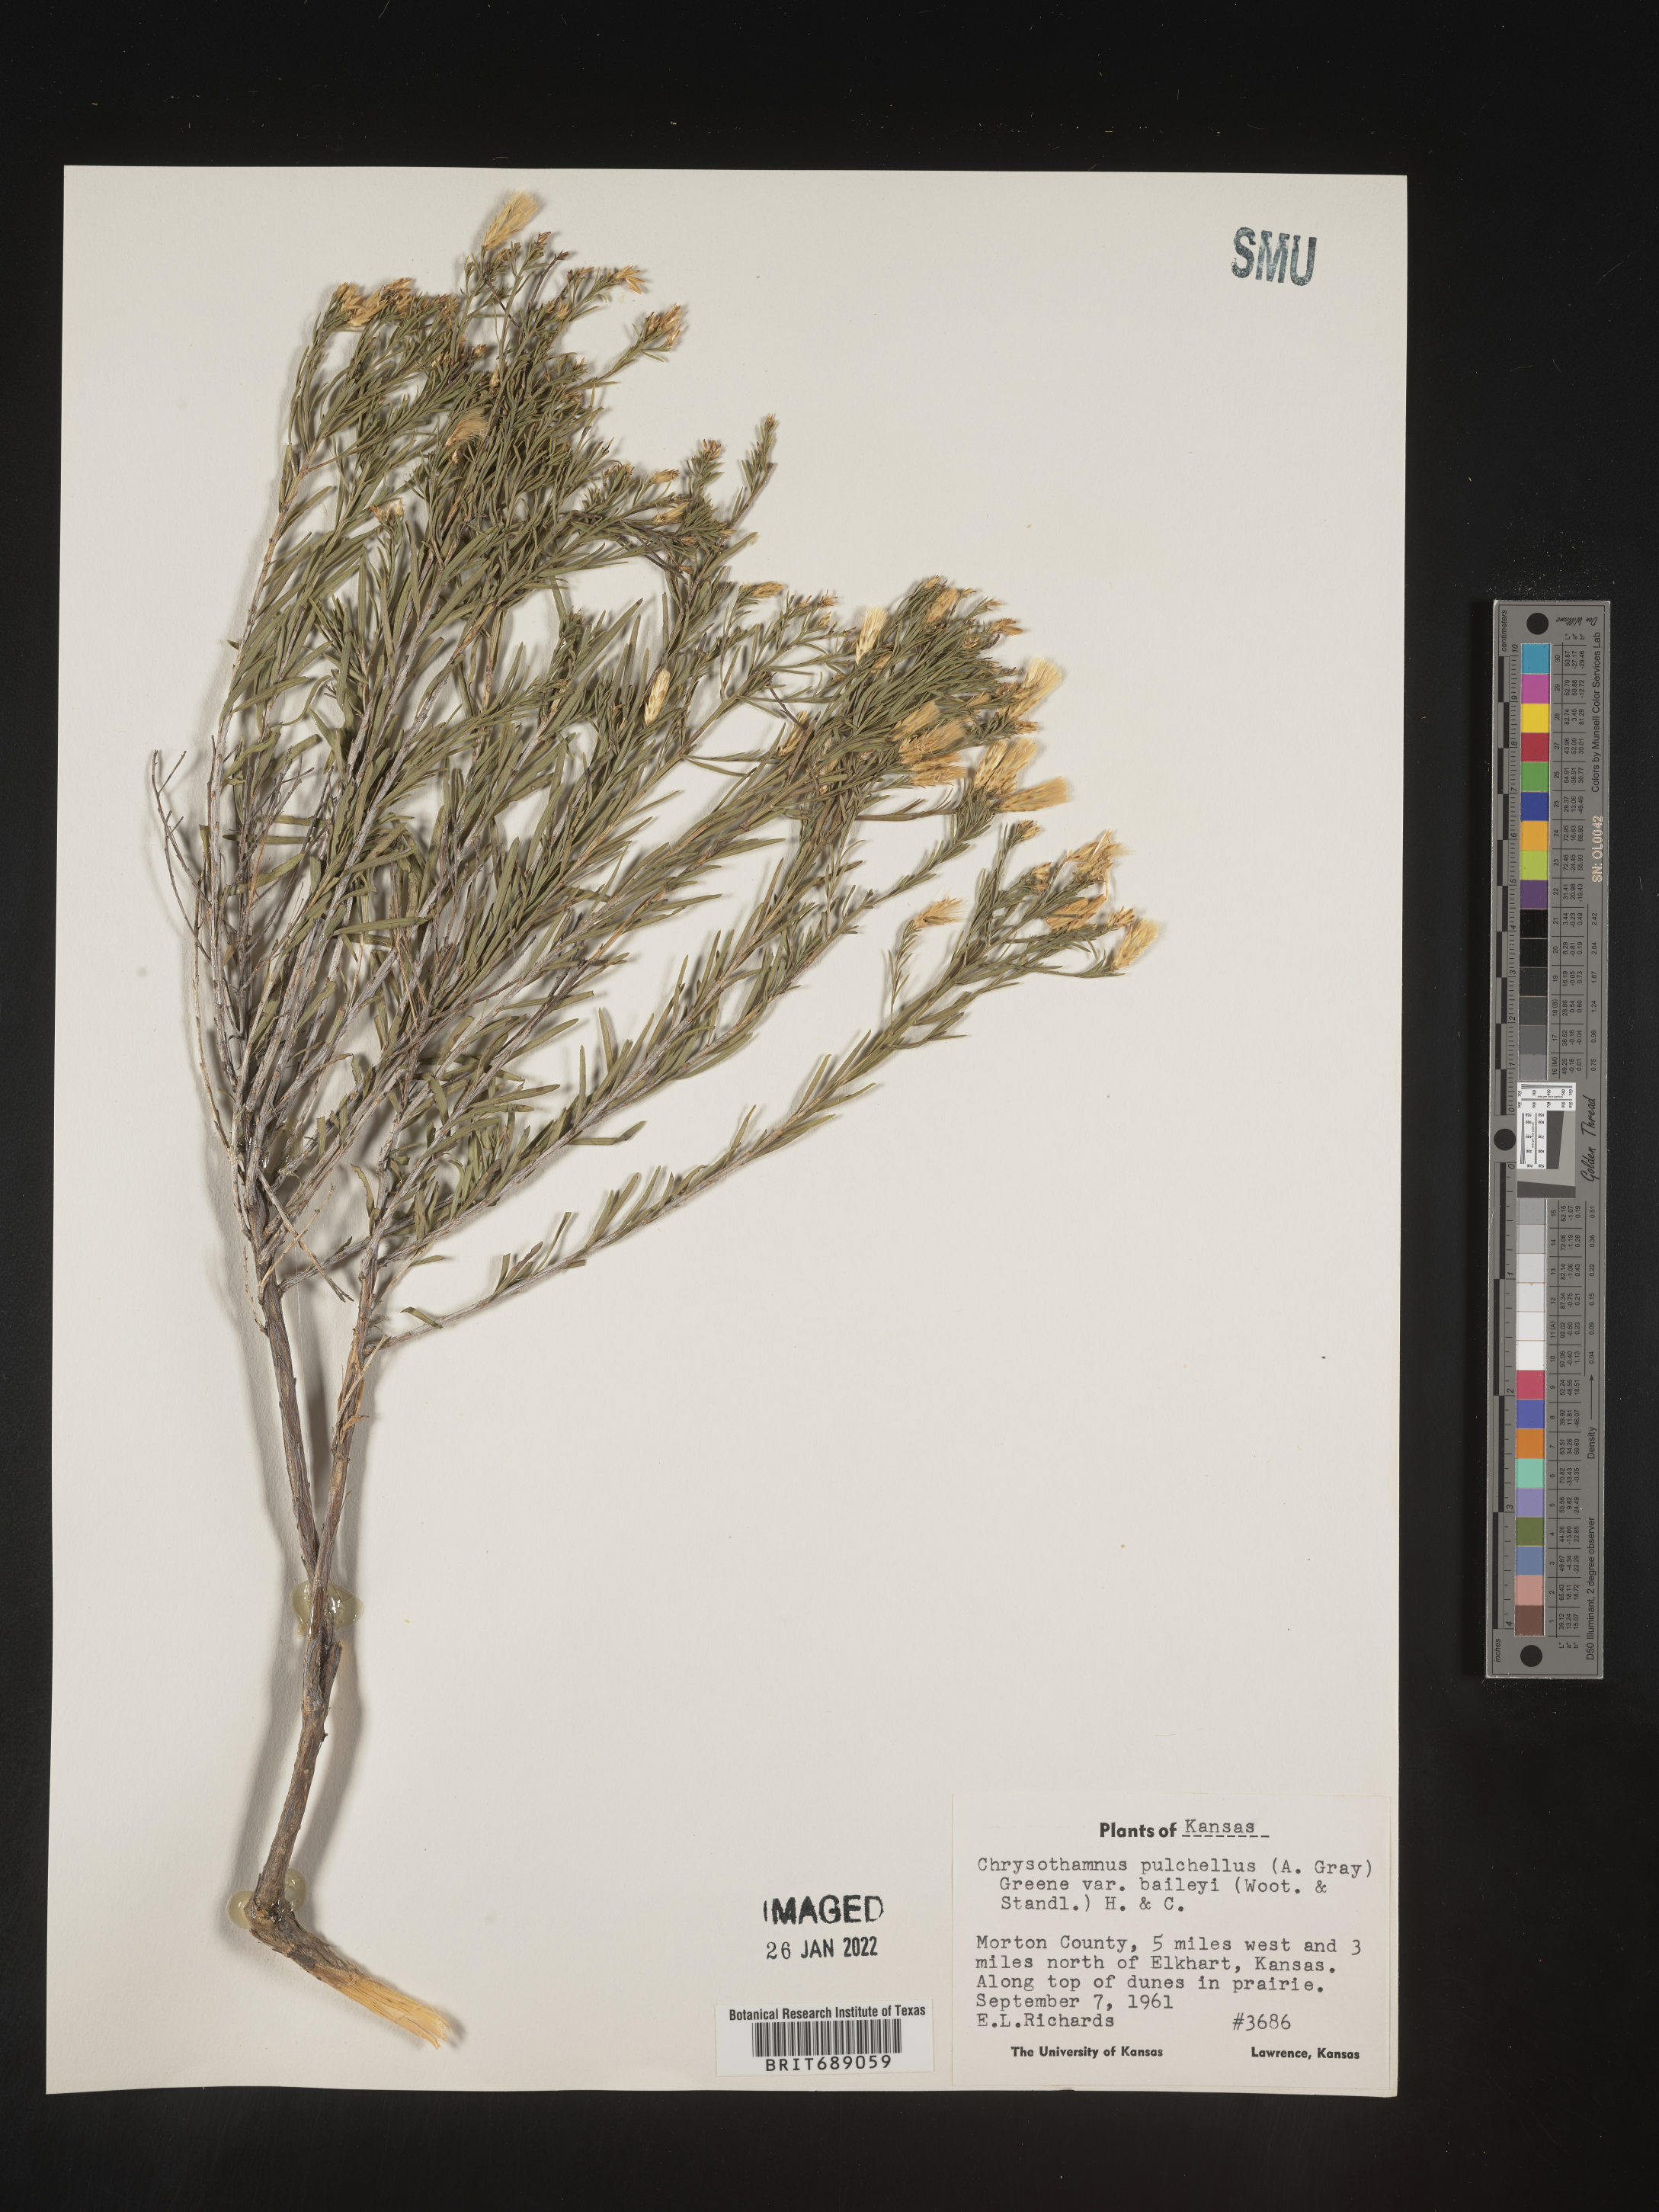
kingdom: Plantae
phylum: Tracheophyta
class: Magnoliopsida
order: Asterales
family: Asteraceae
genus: Lorandersonia
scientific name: Lorandersonia pulchella
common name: Southwestern rabbitbrush
